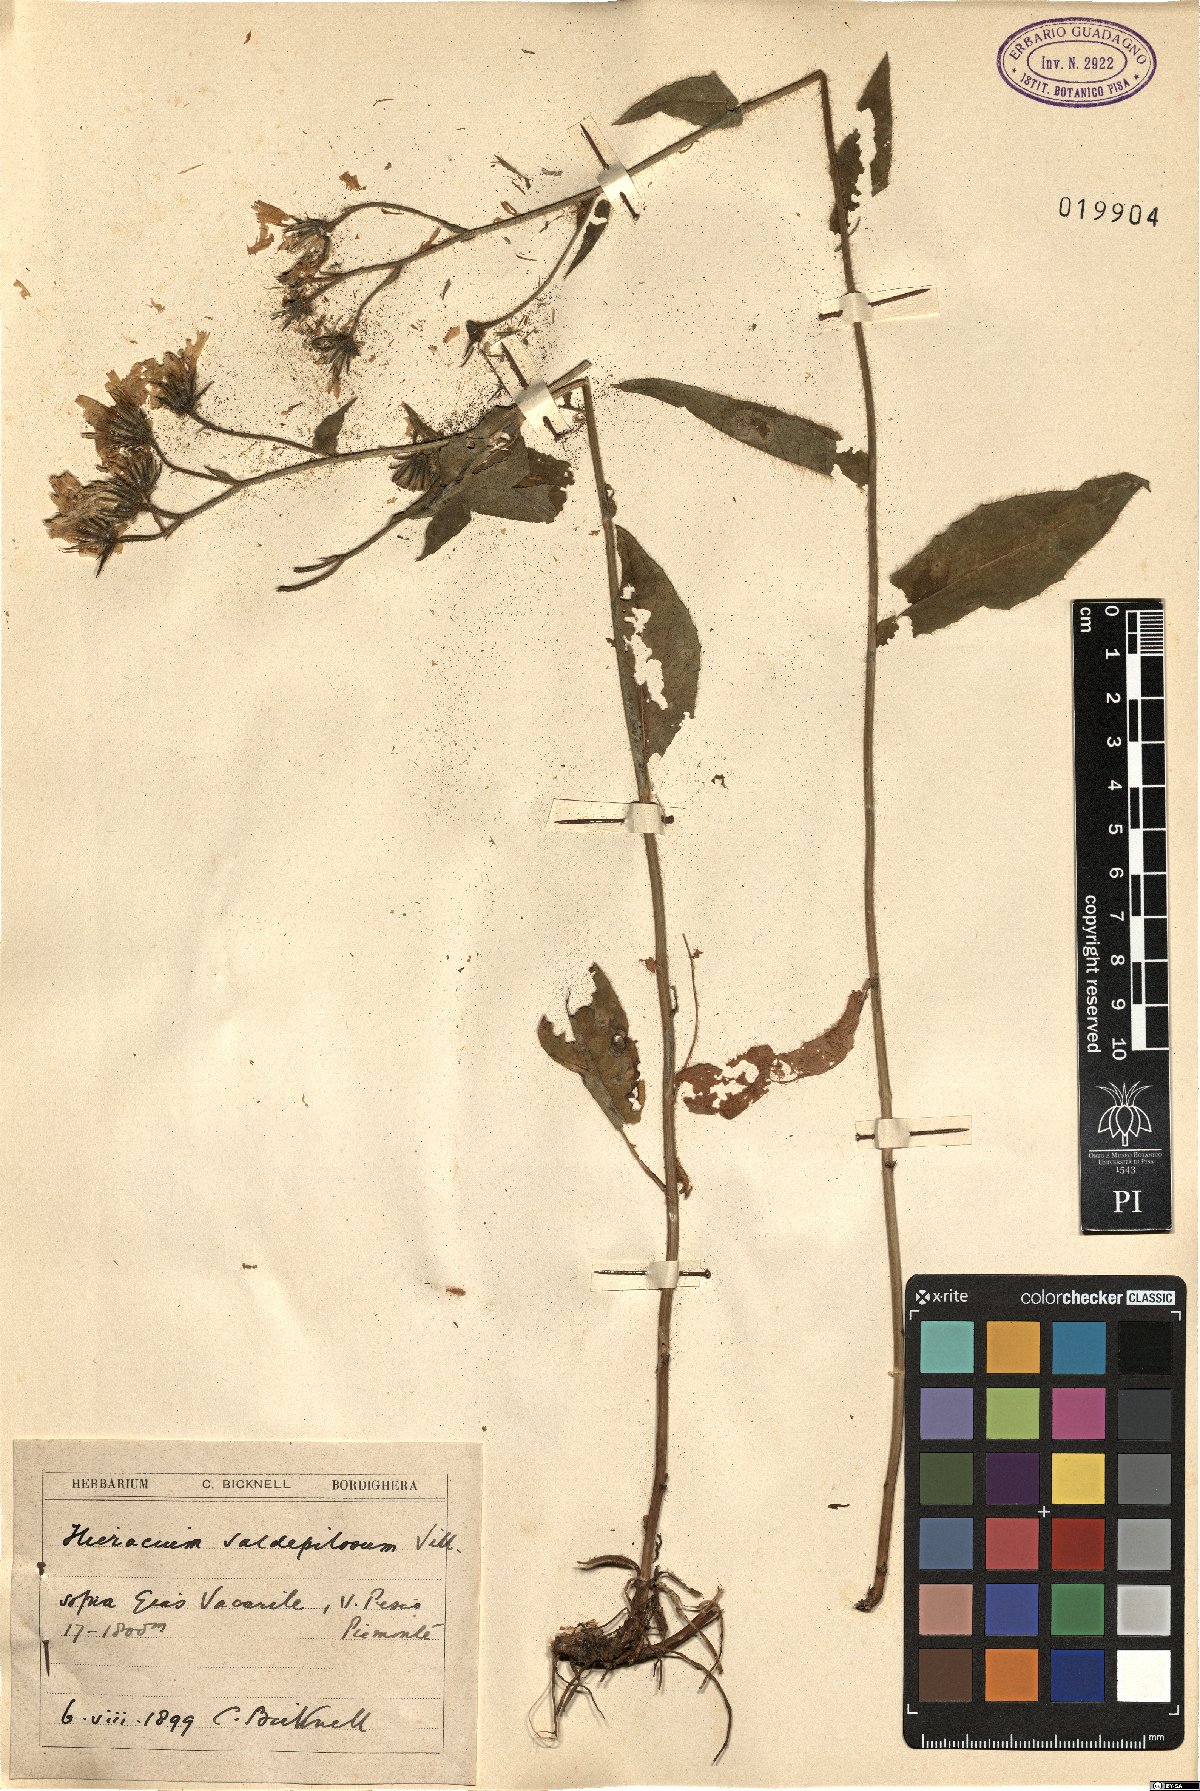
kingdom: Plantae
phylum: Tracheophyta
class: Magnoliopsida
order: Asterales
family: Asteraceae
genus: Hieracium
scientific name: Hieracium valdepilosum
